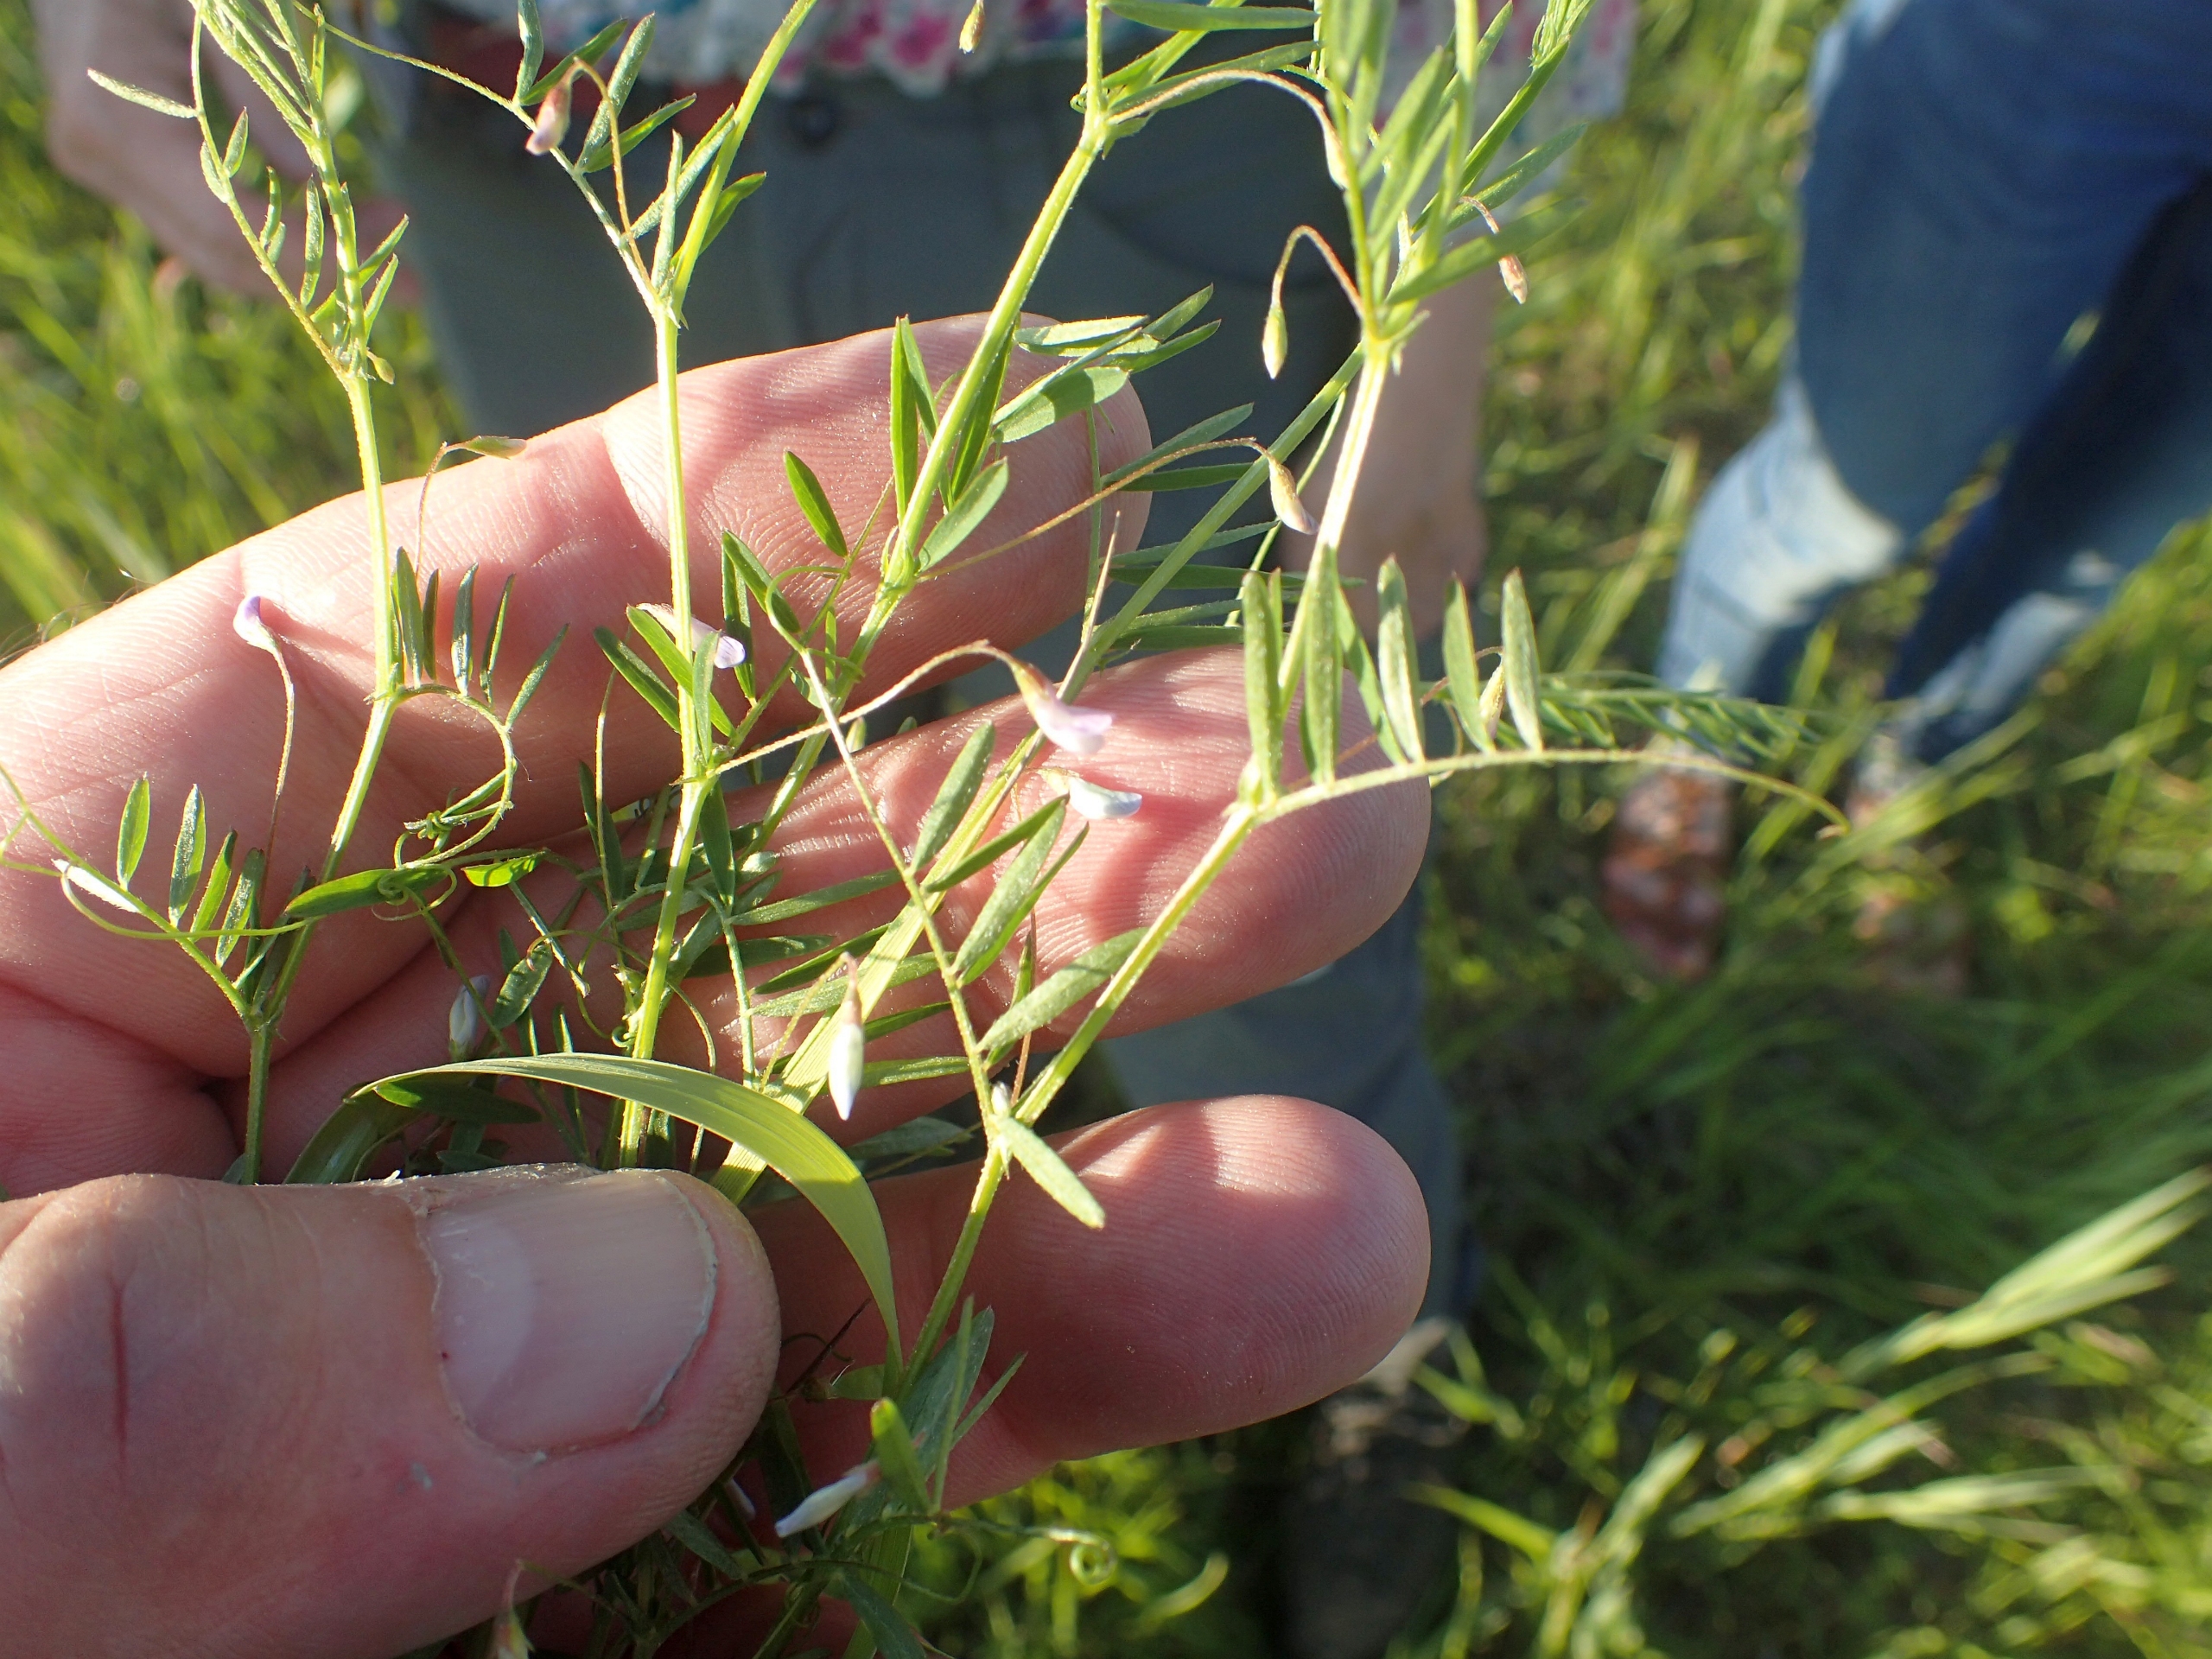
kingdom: Plantae
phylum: Tracheophyta
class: Magnoliopsida
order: Fabales
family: Fabaceae
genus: Vicia
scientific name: Vicia tetrasperma
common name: Tadder-vikke
